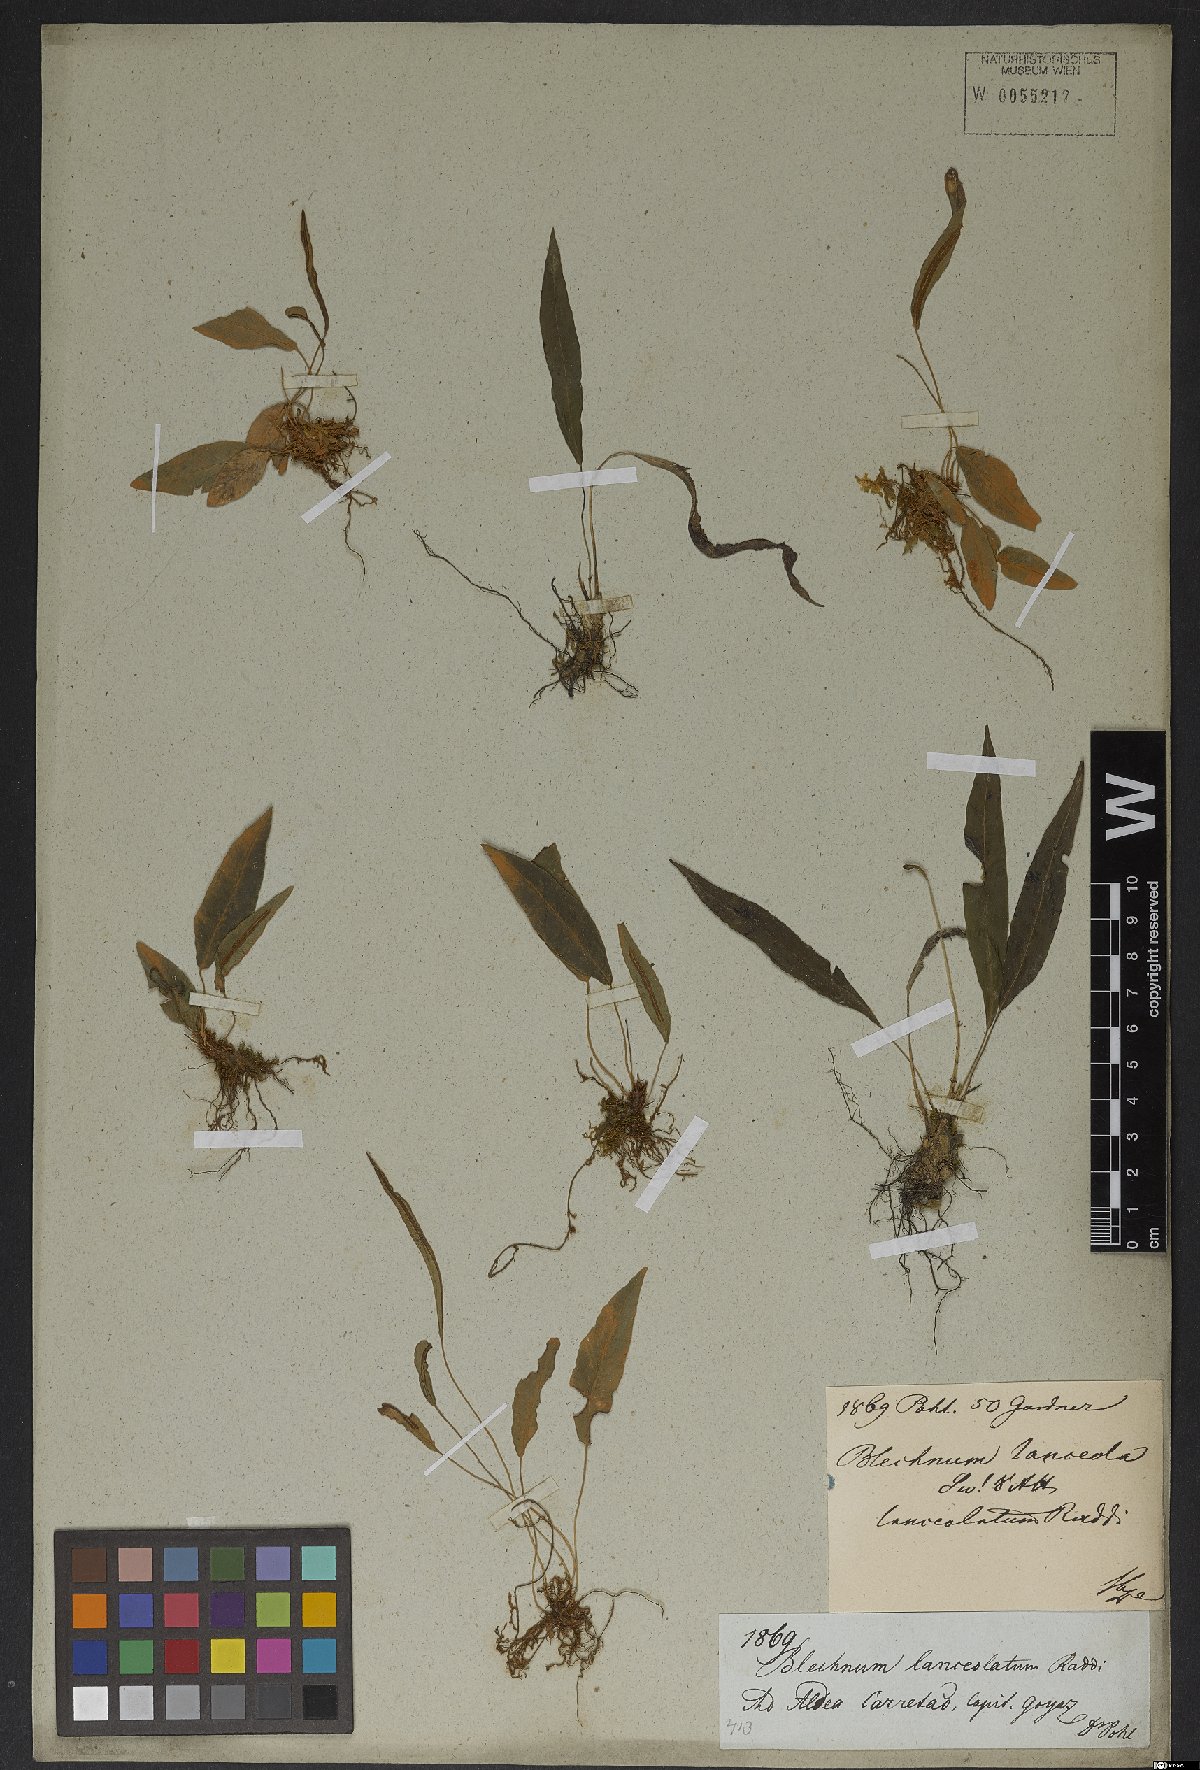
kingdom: Plantae
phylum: Tracheophyta
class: Polypodiopsida
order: Polypodiales
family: Blechnaceae
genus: Blechnum
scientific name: Blechnum lanceola
